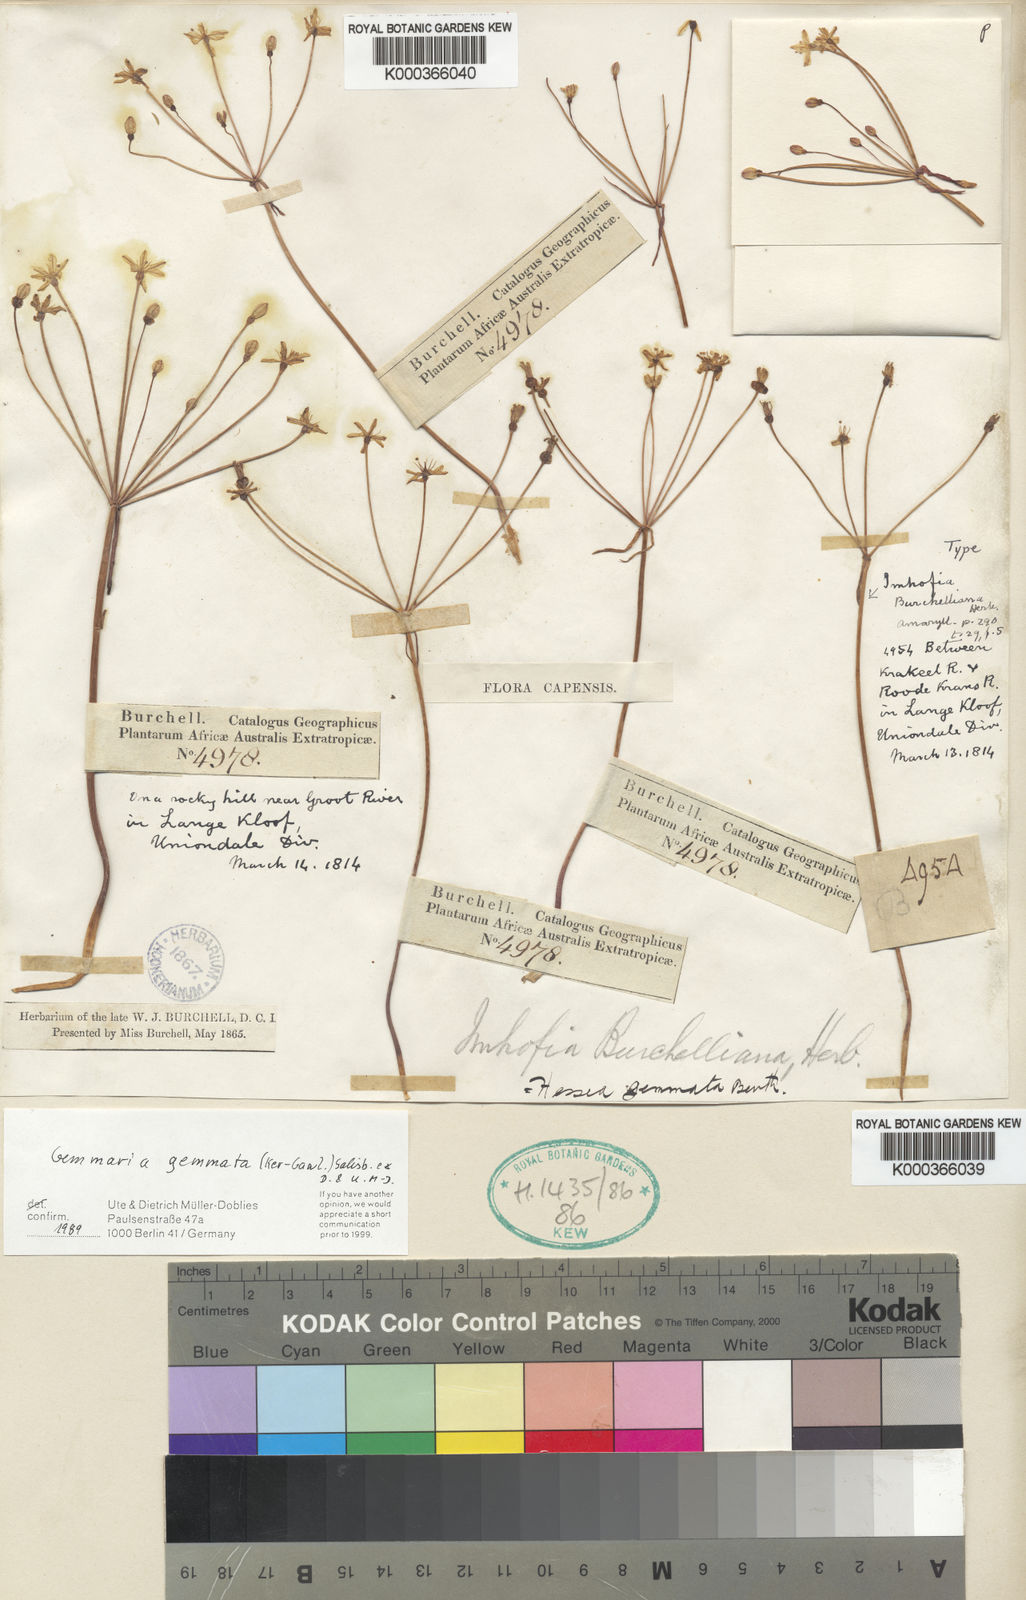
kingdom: Plantae
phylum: Tracheophyta
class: Liliopsida
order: Asparagales
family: Amaryllidaceae
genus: Strumaria
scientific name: Strumaria gemmata
